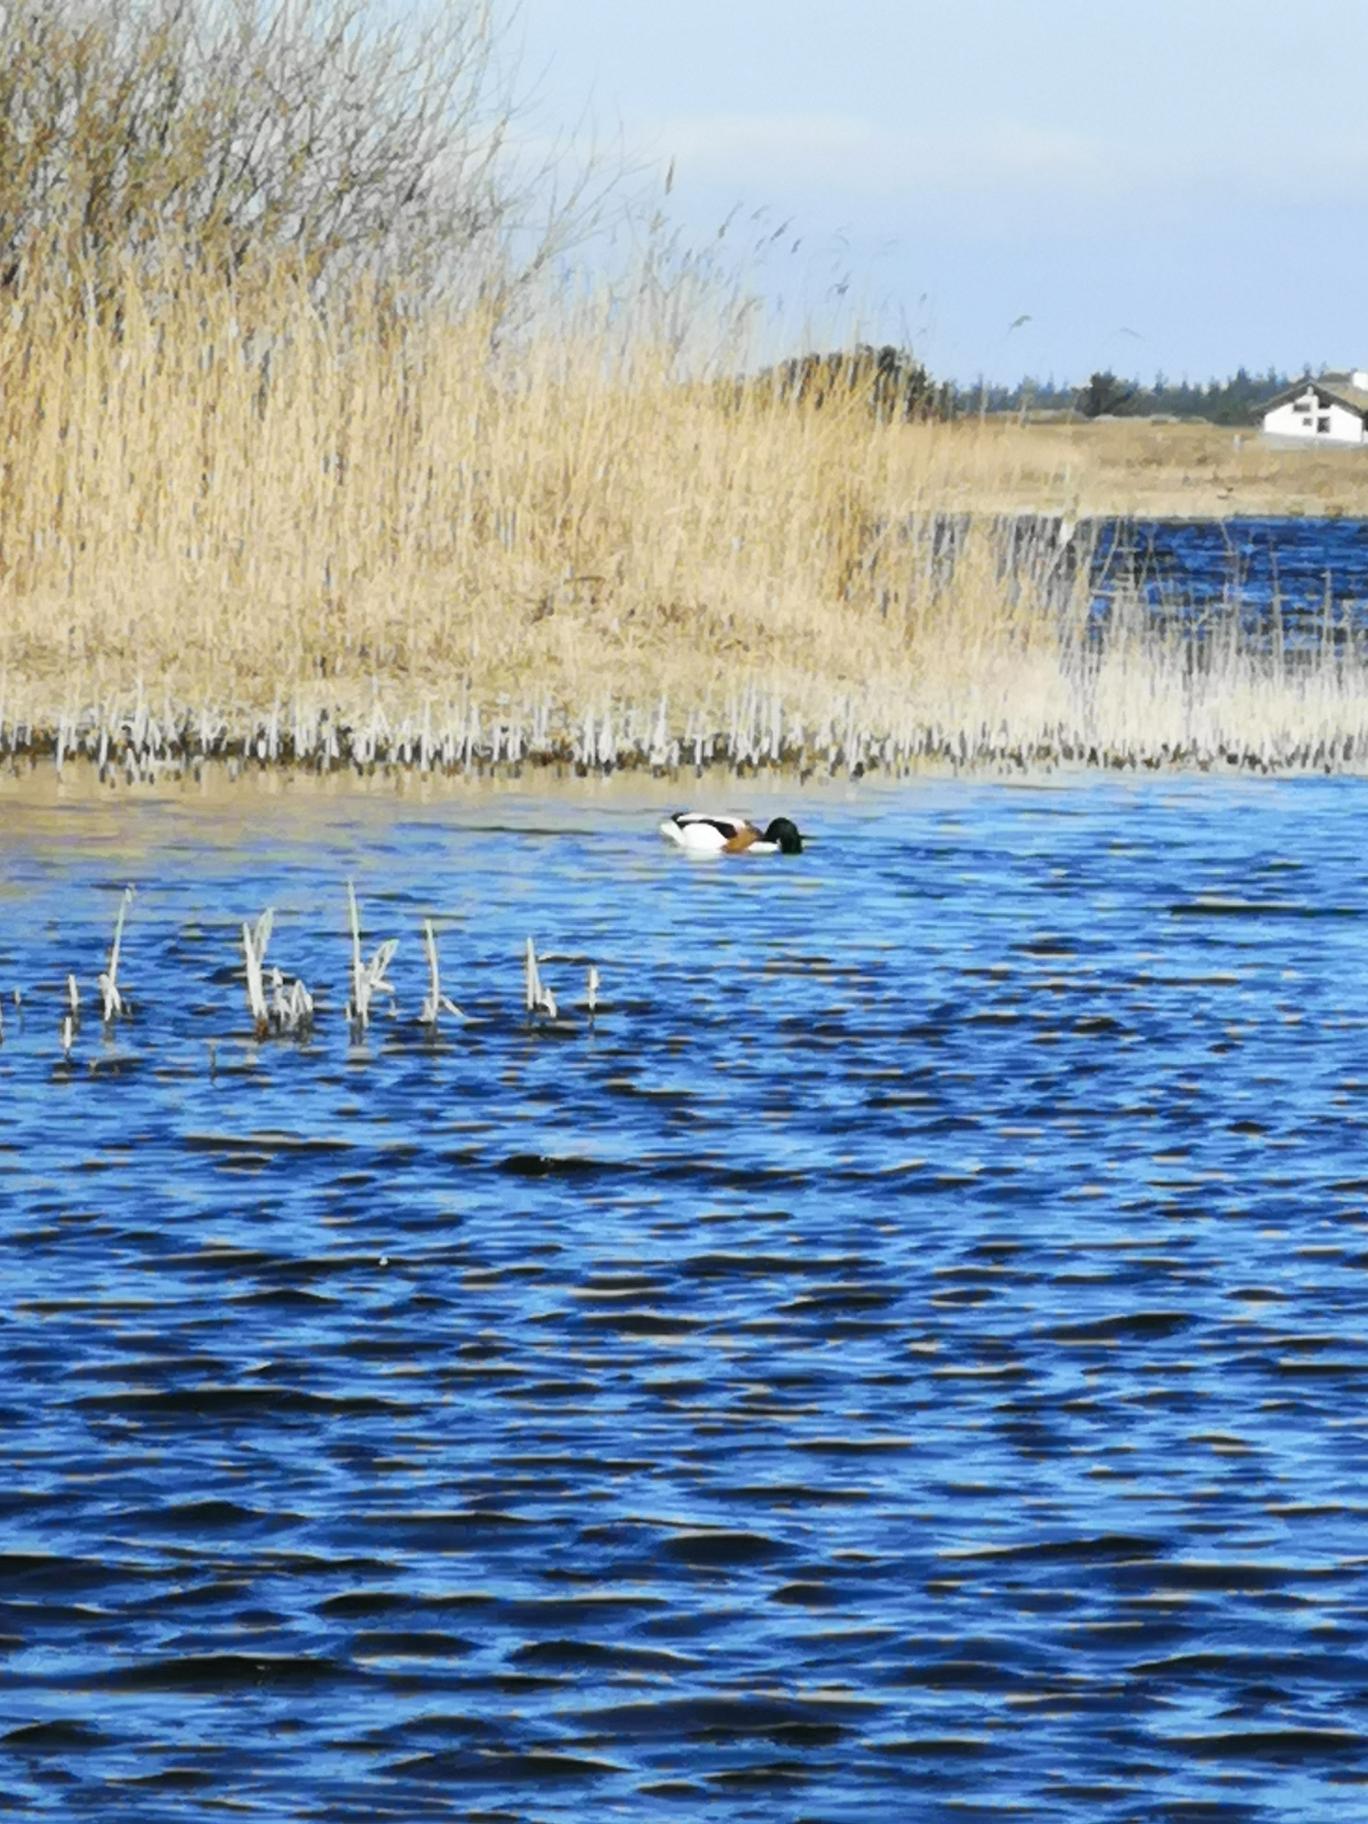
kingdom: Animalia
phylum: Chordata
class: Aves
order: Anseriformes
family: Anatidae
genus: Tadorna
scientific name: Tadorna tadorna
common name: Gravand
